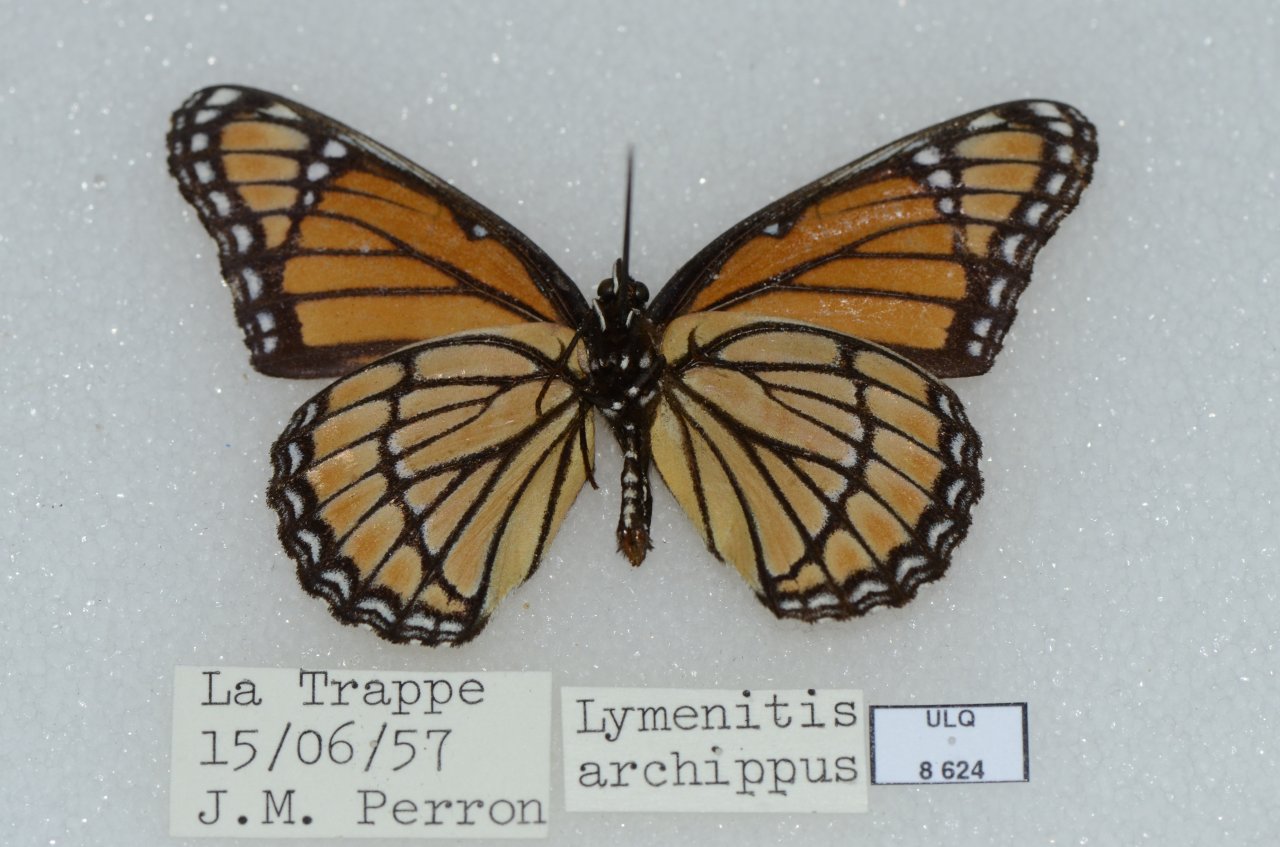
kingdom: Animalia
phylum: Arthropoda
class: Insecta
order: Lepidoptera
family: Nymphalidae
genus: Limenitis
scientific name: Limenitis archippus
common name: Viceroy
